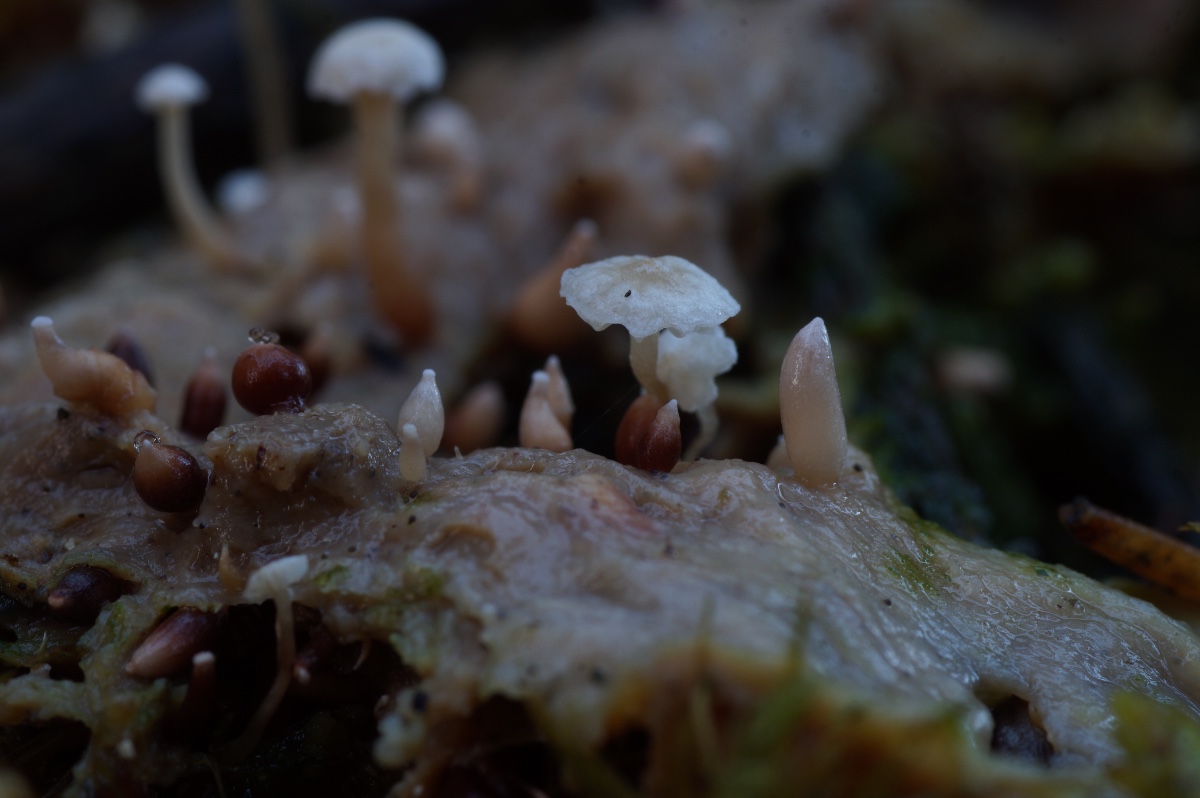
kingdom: Fungi
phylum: Basidiomycota
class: Agaricomycetes
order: Agaricales
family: Tricholomataceae
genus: Collybia
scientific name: Collybia tuberosa
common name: spidsknoldet lighat
